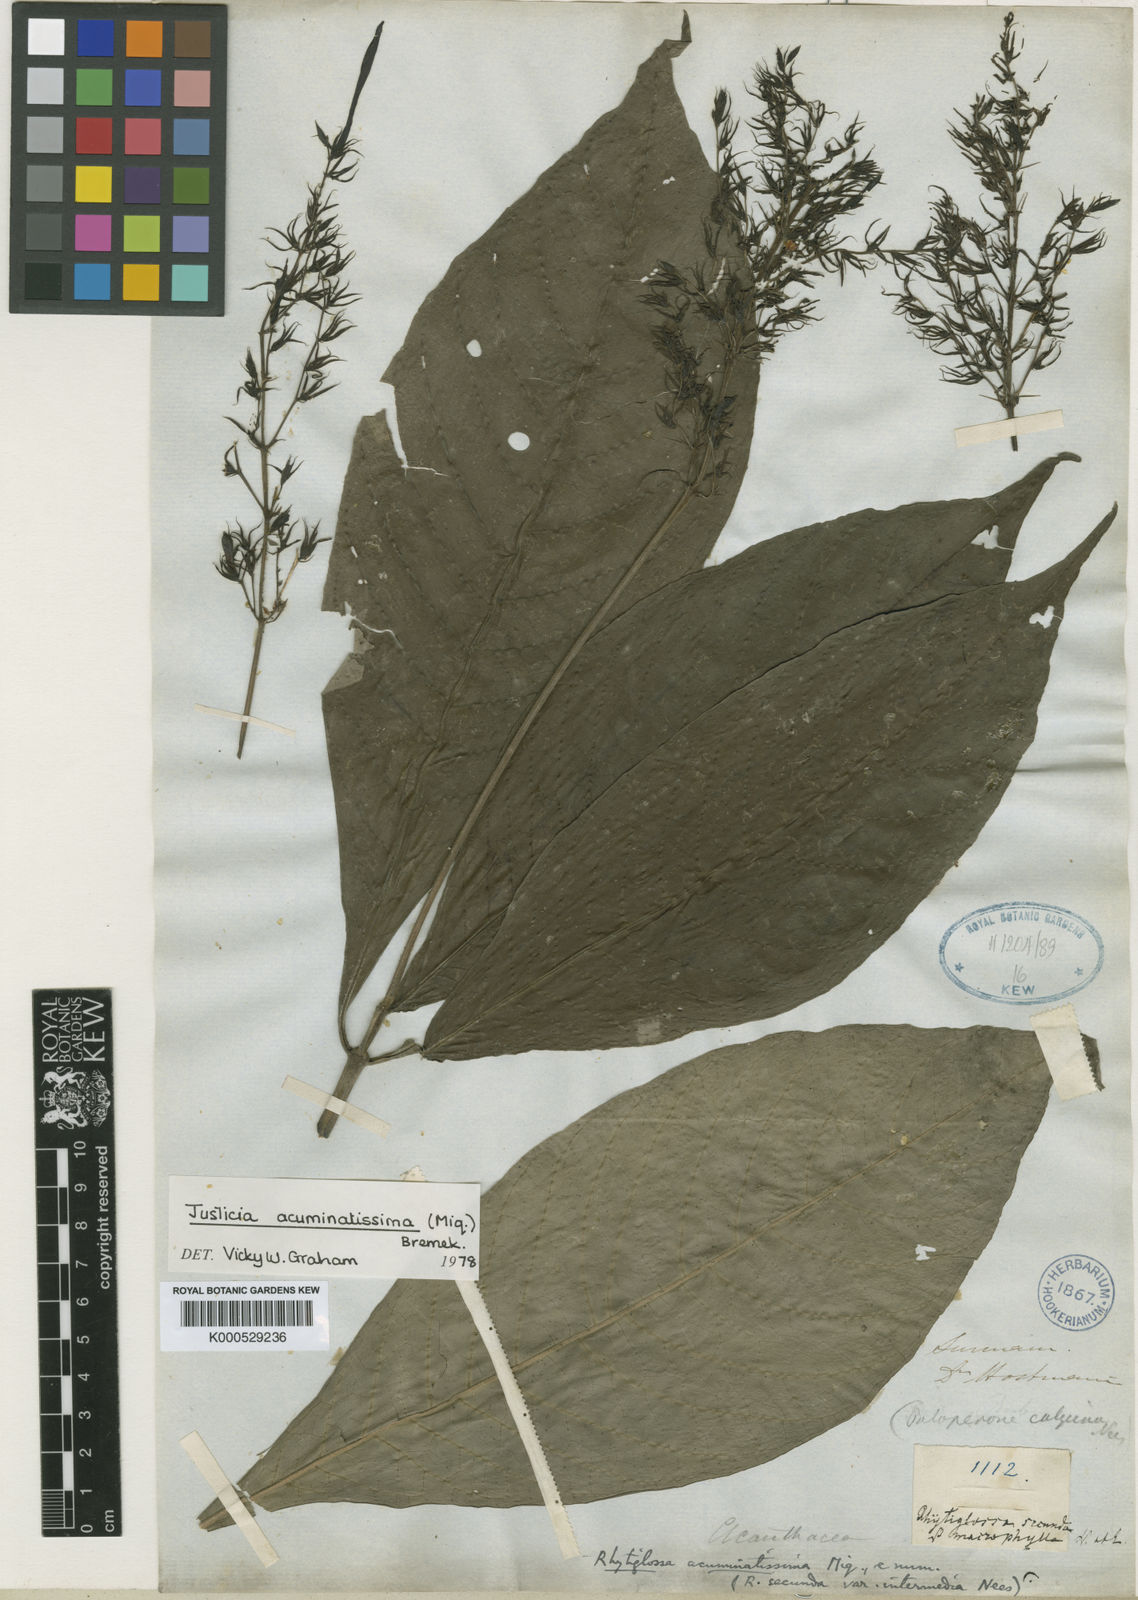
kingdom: Plantae
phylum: Tracheophyta
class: Magnoliopsida
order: Lamiales
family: Acanthaceae
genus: Dianthera
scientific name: Dianthera calycina
